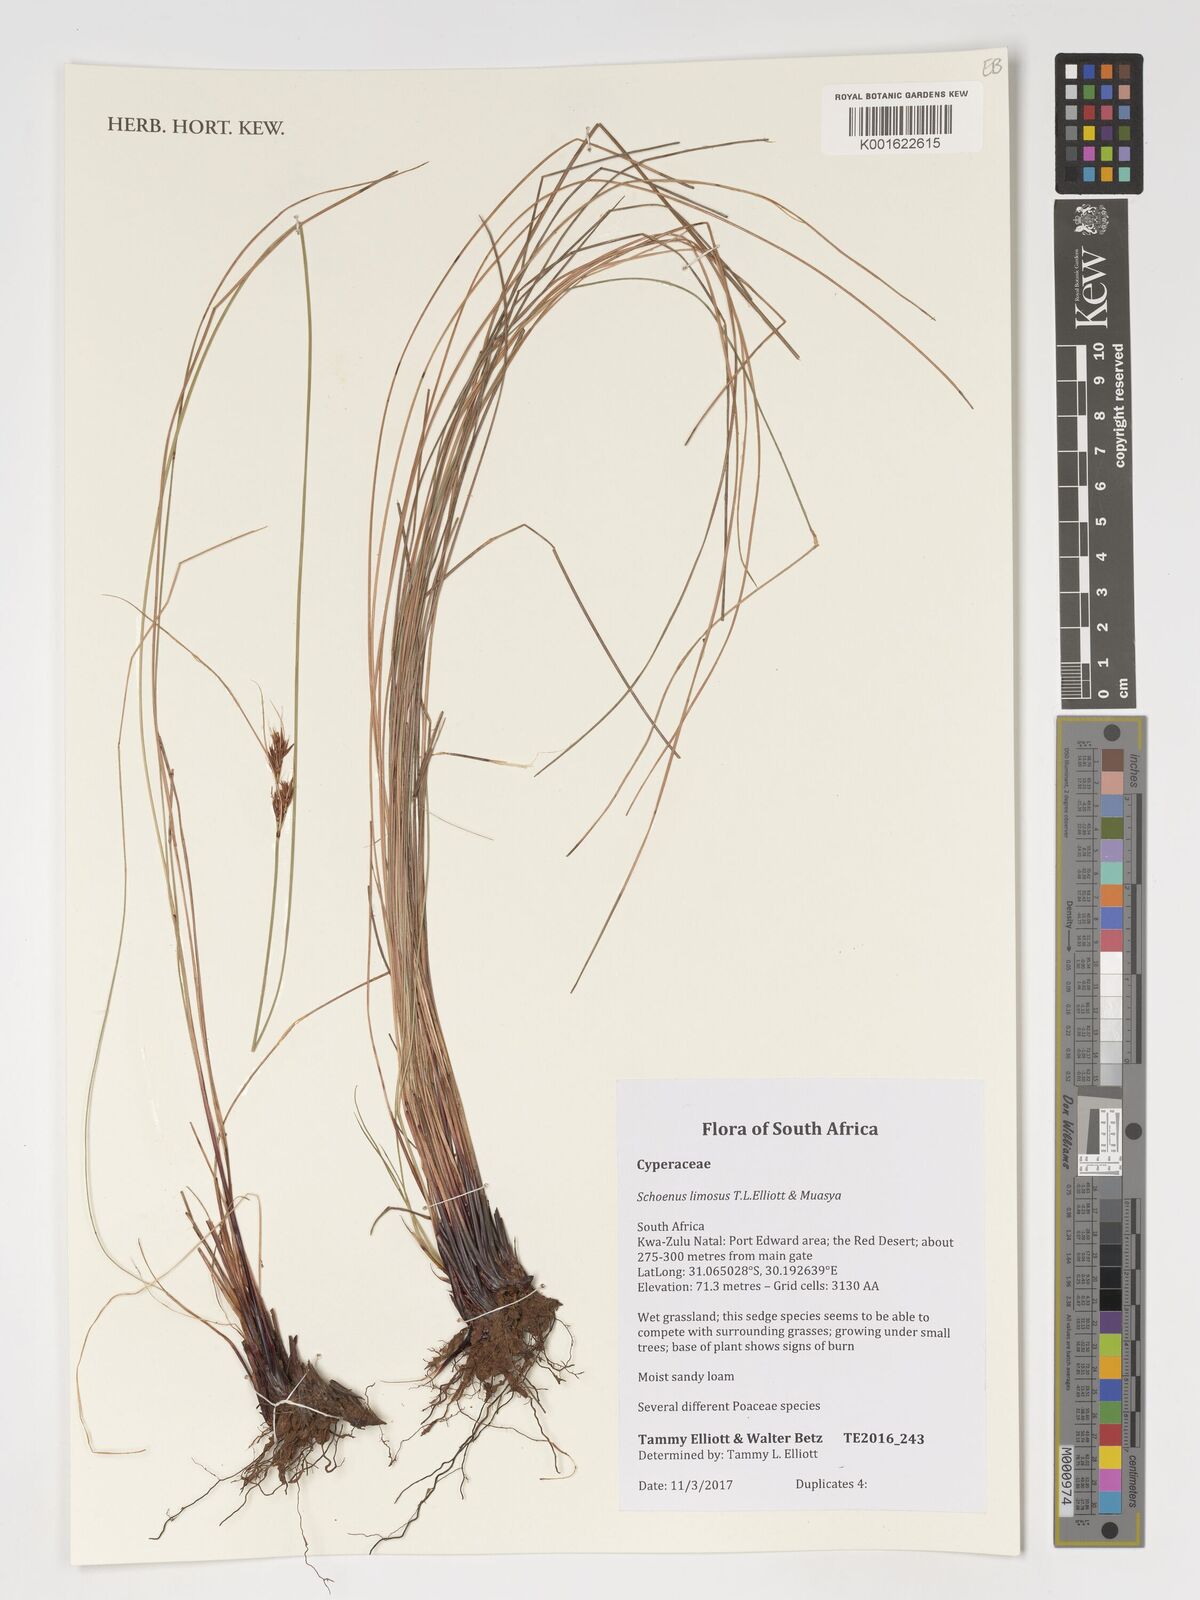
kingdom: Plantae
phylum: Tracheophyta
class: Liliopsida
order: Poales
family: Cyperaceae
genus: Schoenus
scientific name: Schoenus limosus
